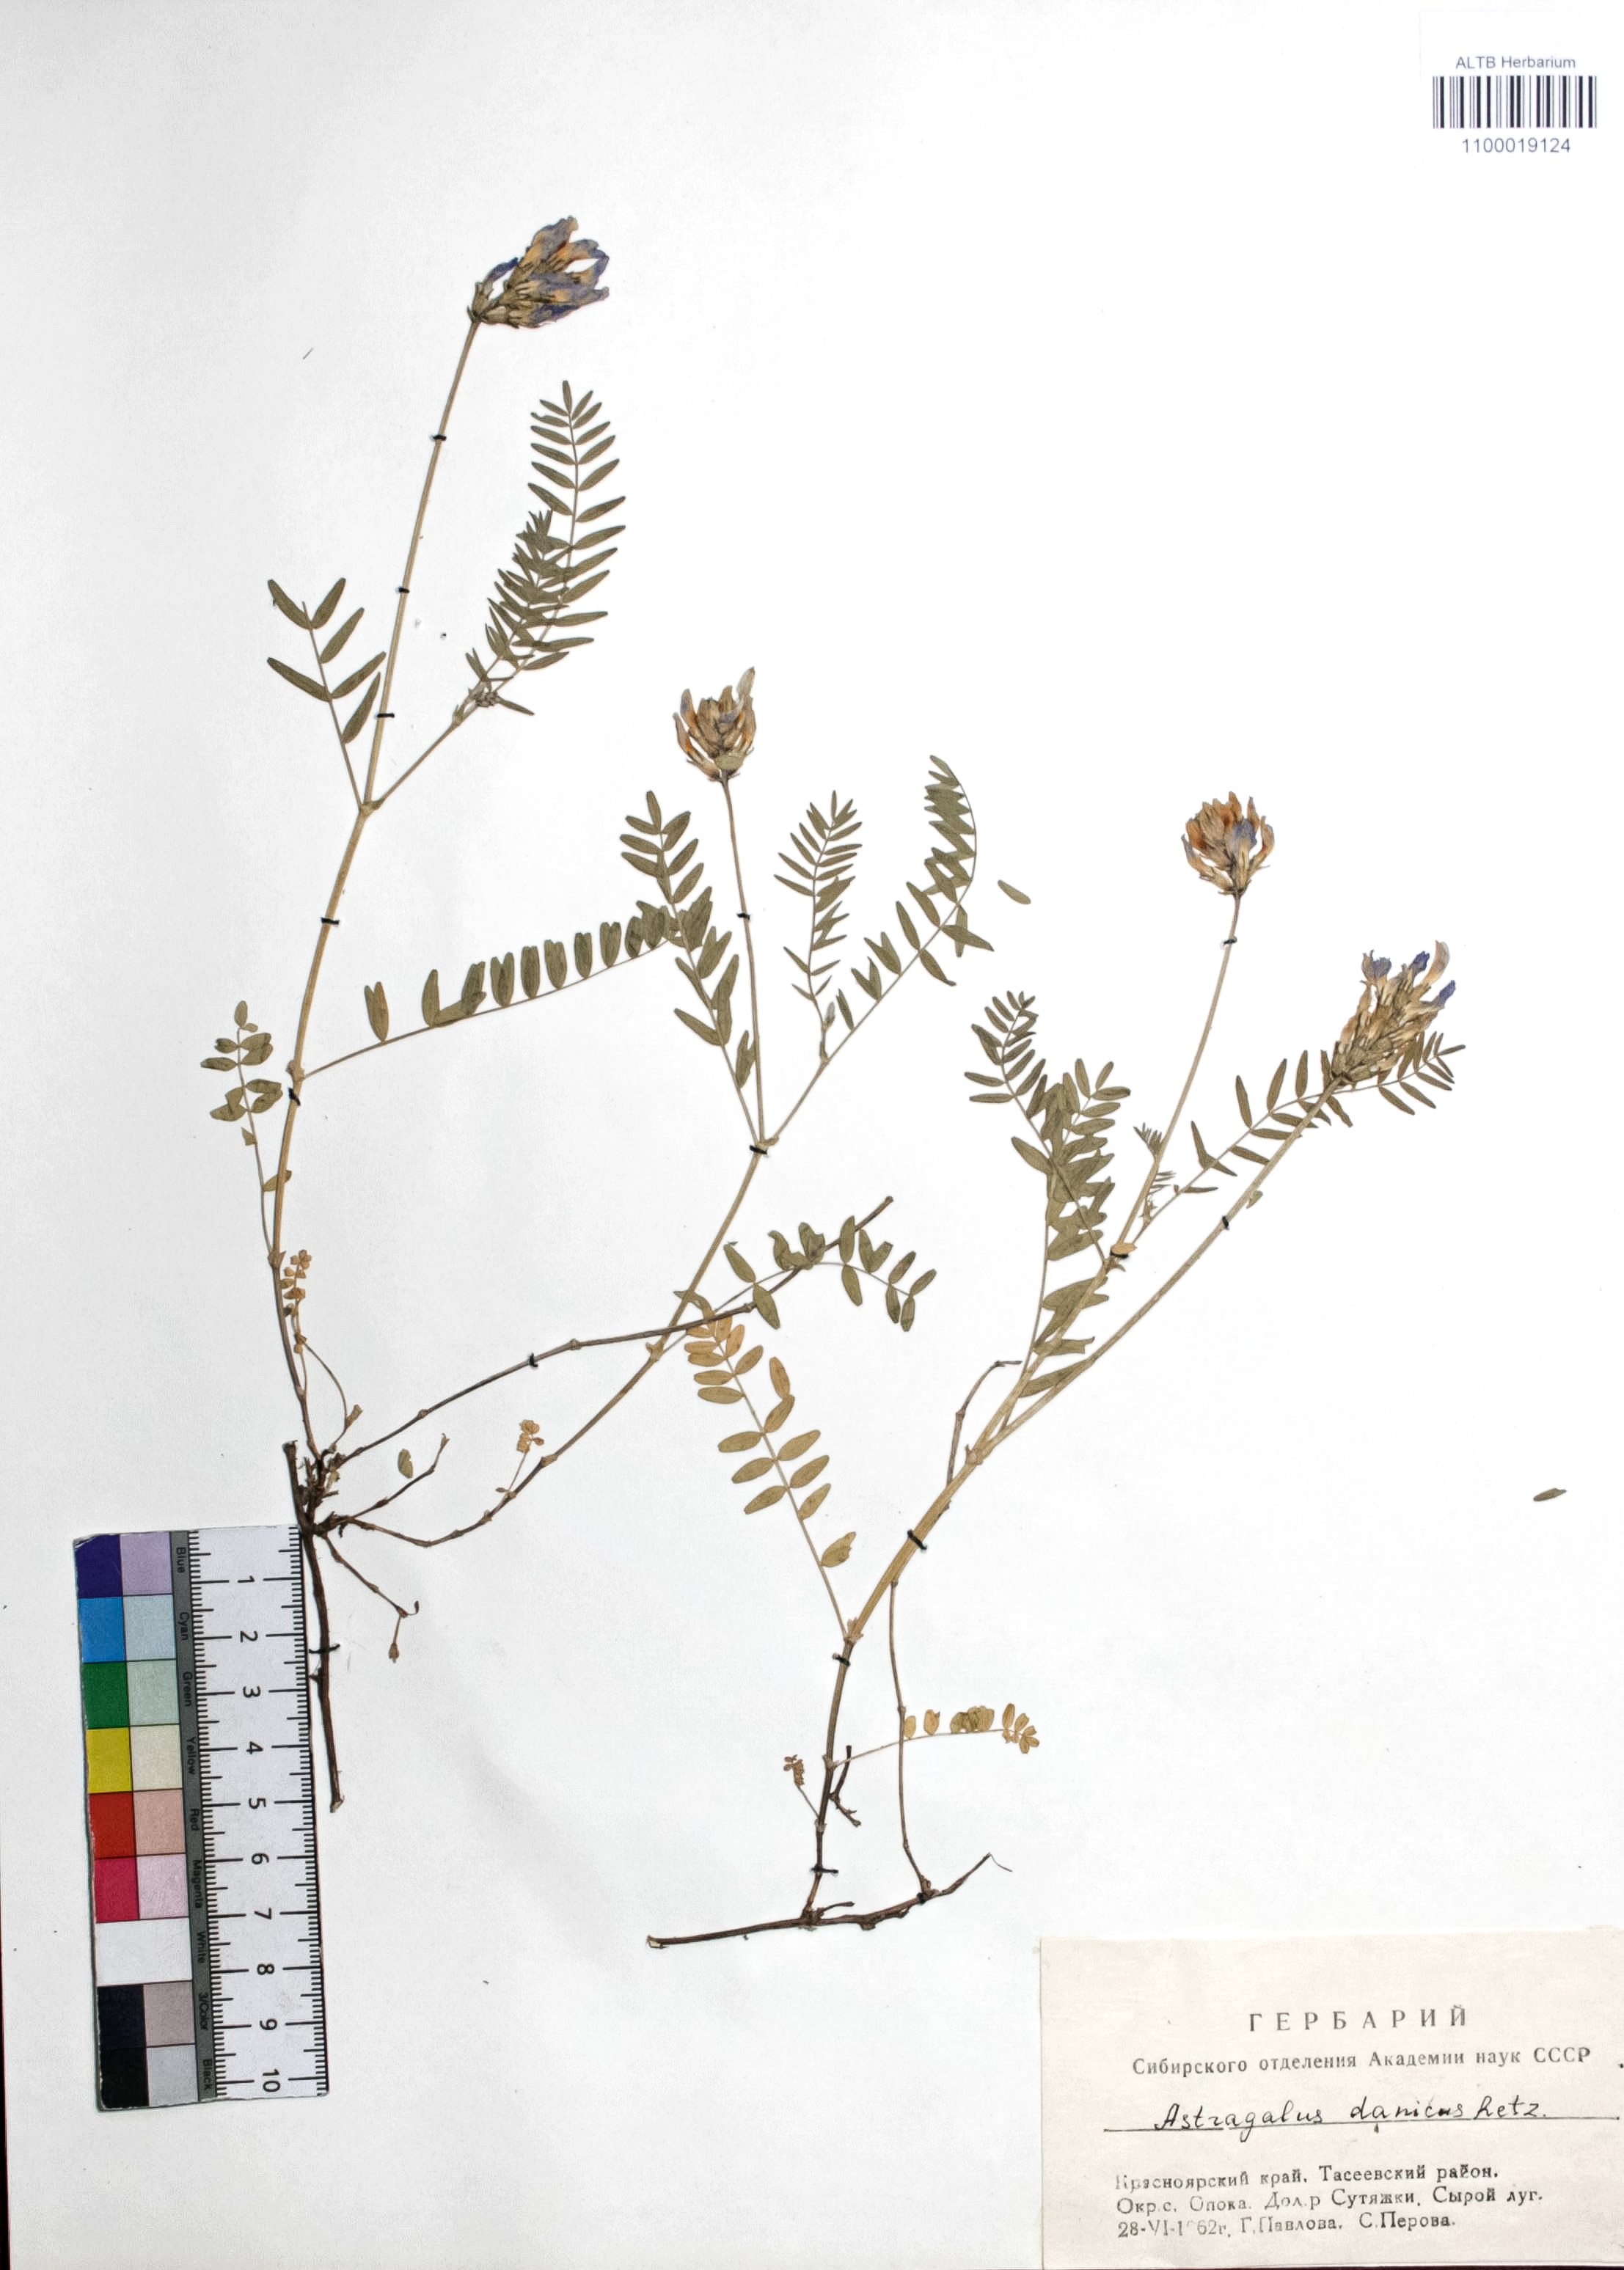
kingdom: Plantae
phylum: Tracheophyta
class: Magnoliopsida
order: Fabales
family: Fabaceae
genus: Astragalus
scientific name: Astragalus danicus
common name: Purple milk-vetch
